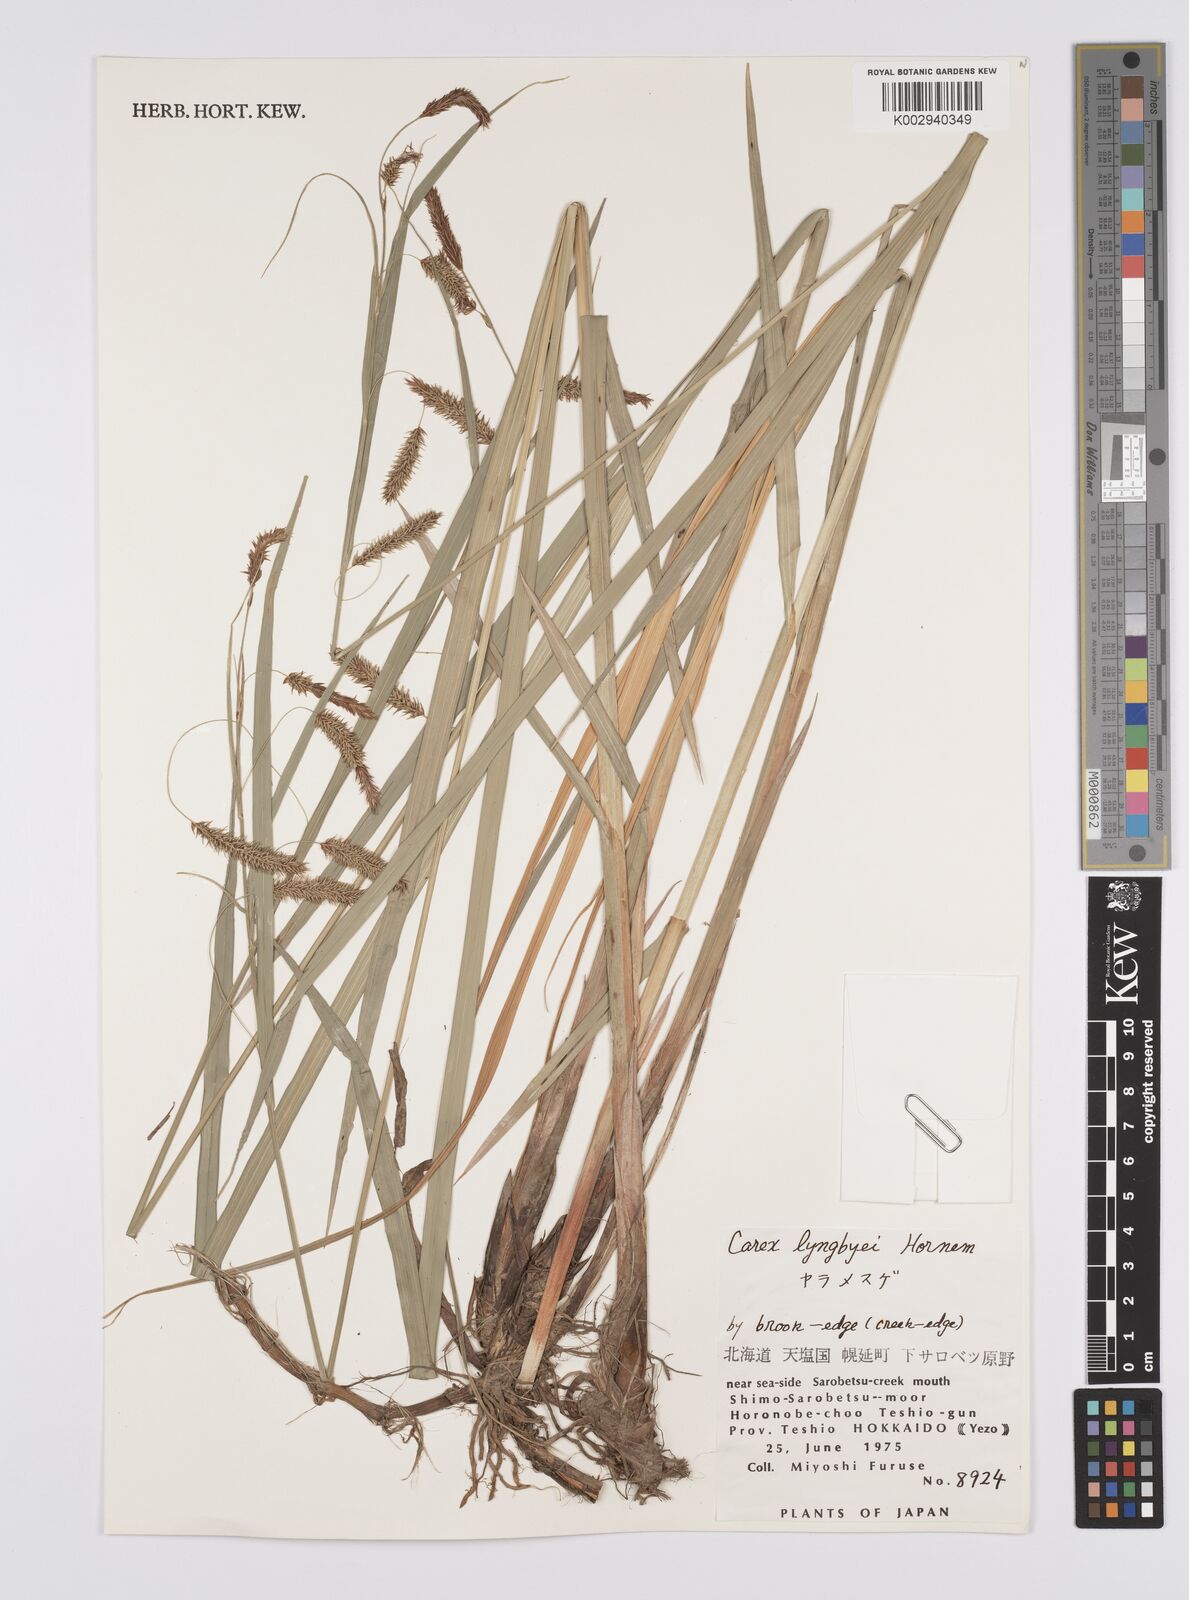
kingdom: Plantae
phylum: Tracheophyta
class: Liliopsida
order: Poales
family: Cyperaceae
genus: Carex
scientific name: Carex lyngbyei
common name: Lyngbye's sedge
